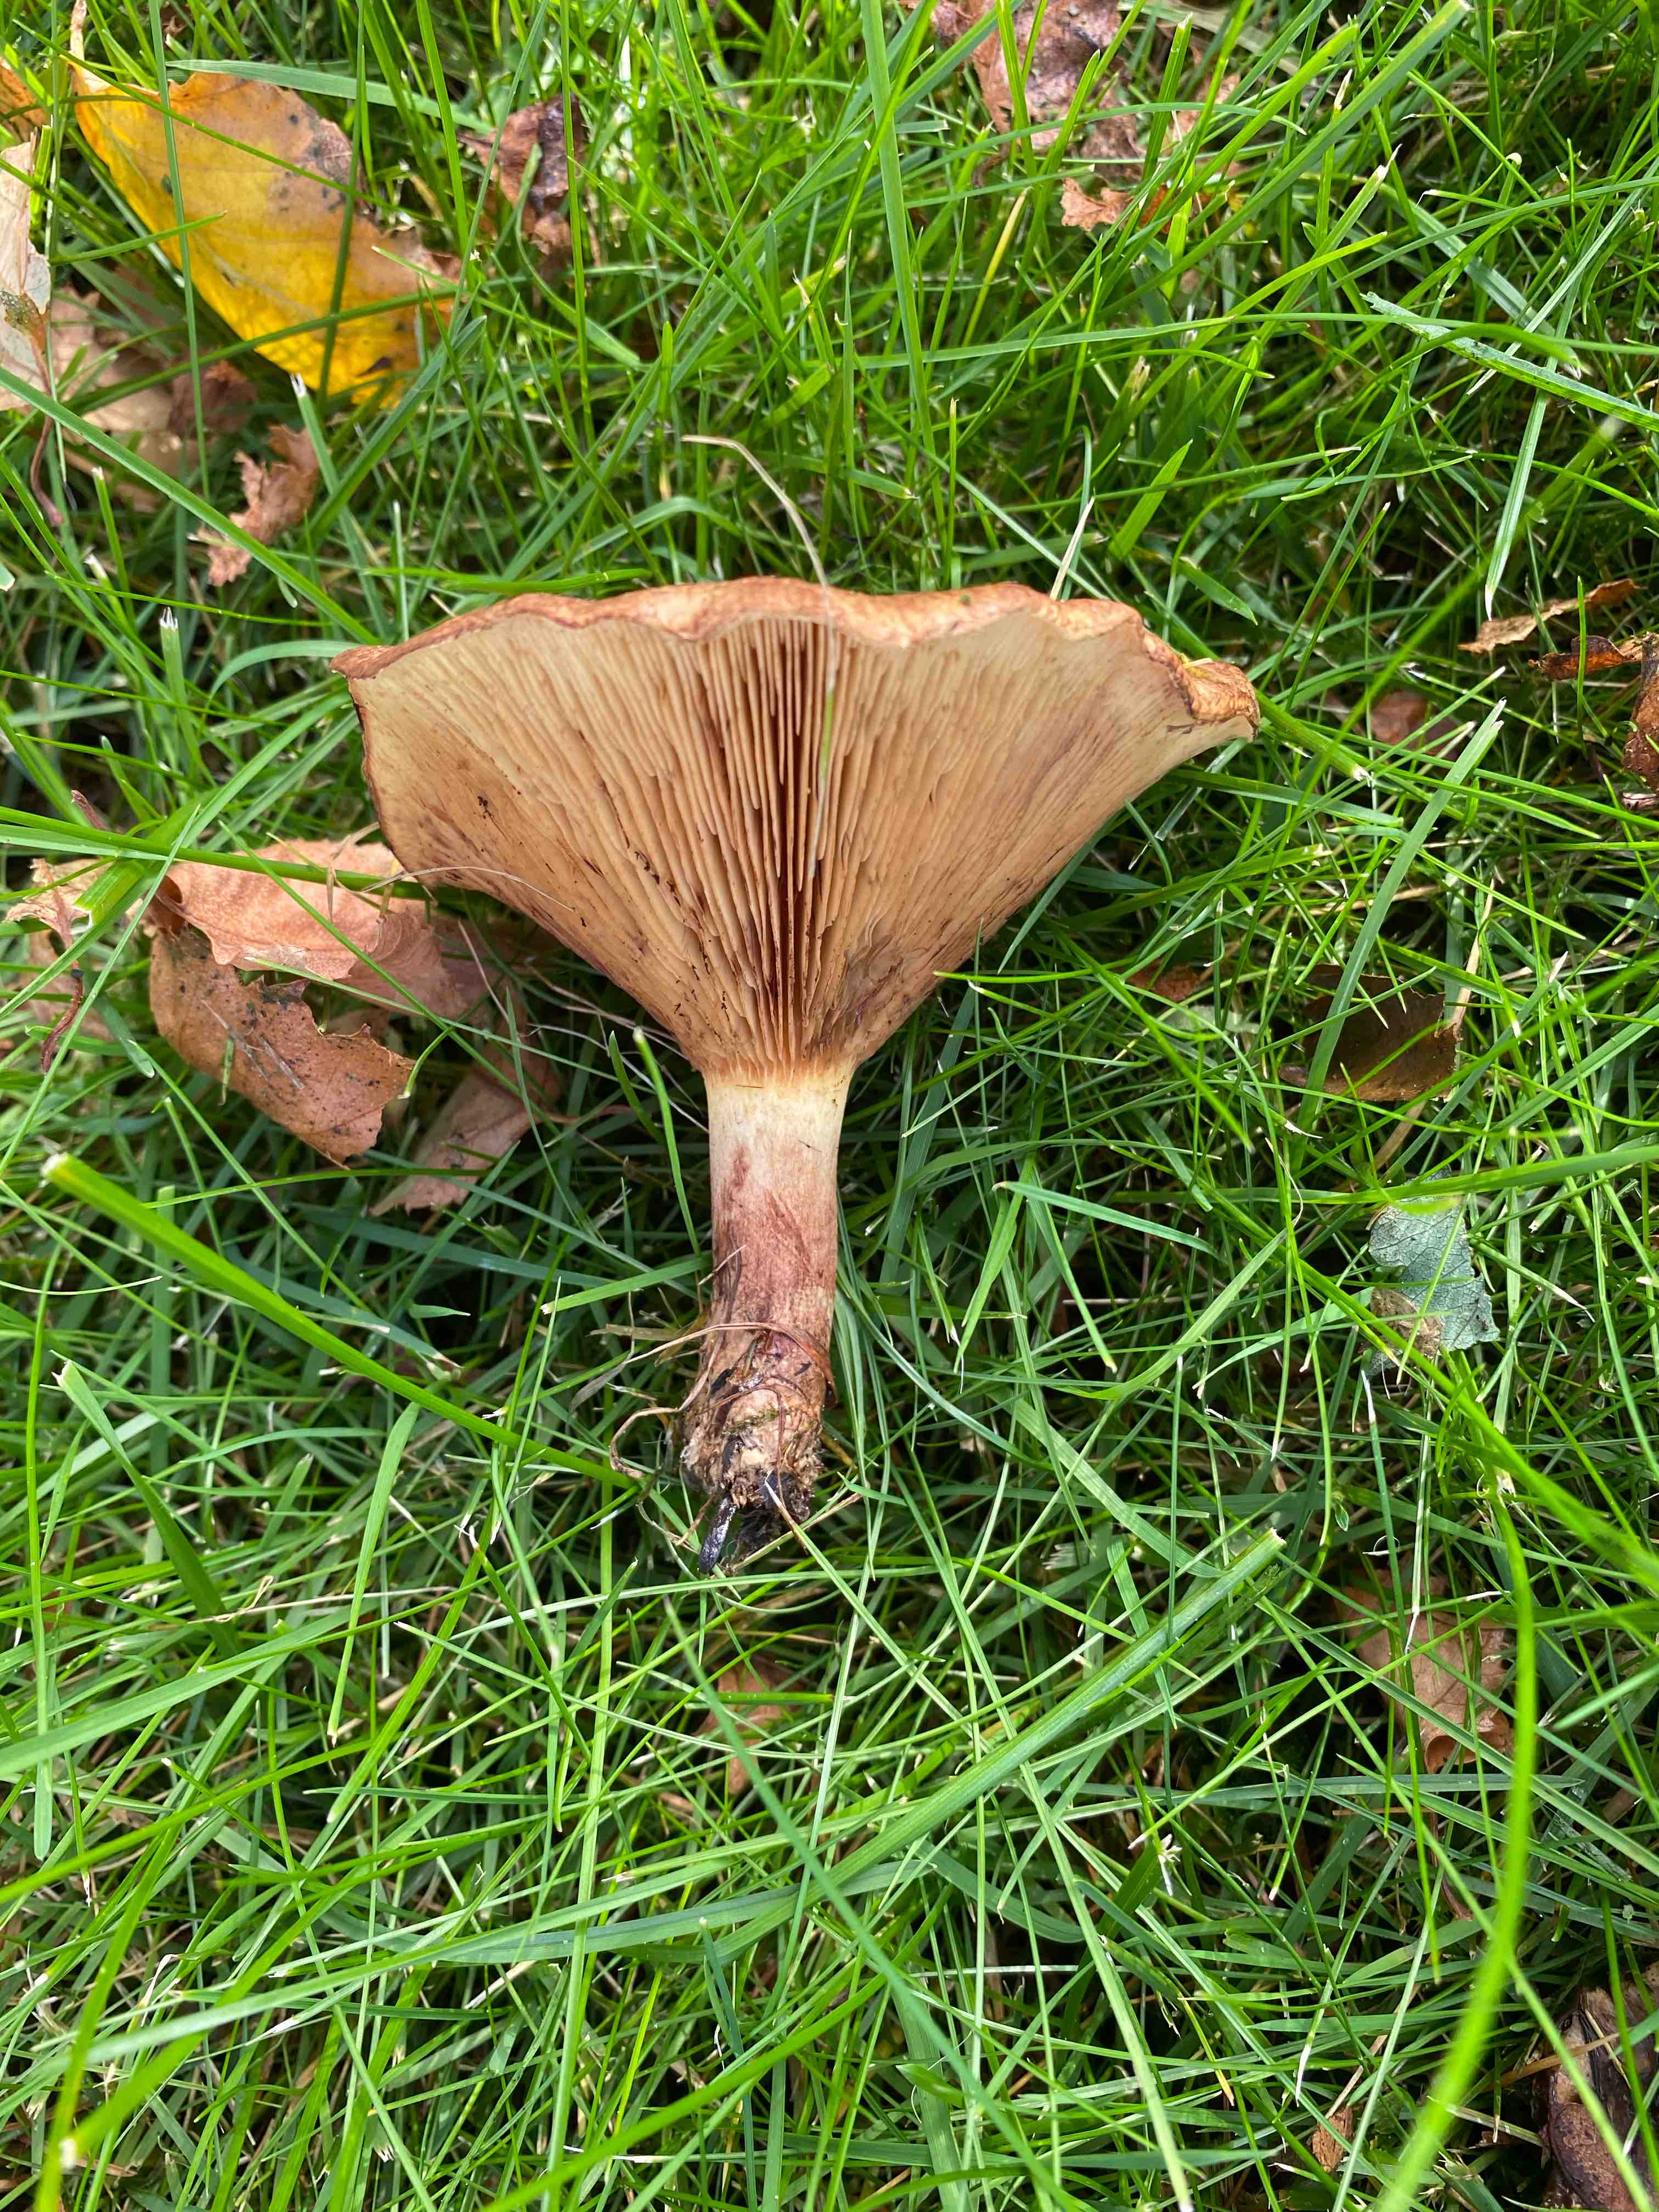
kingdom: Fungi
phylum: Basidiomycota
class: Agaricomycetes
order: Boletales
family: Paxillaceae
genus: Paxillus
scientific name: Paxillus involutus
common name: almindelig netbladhat
